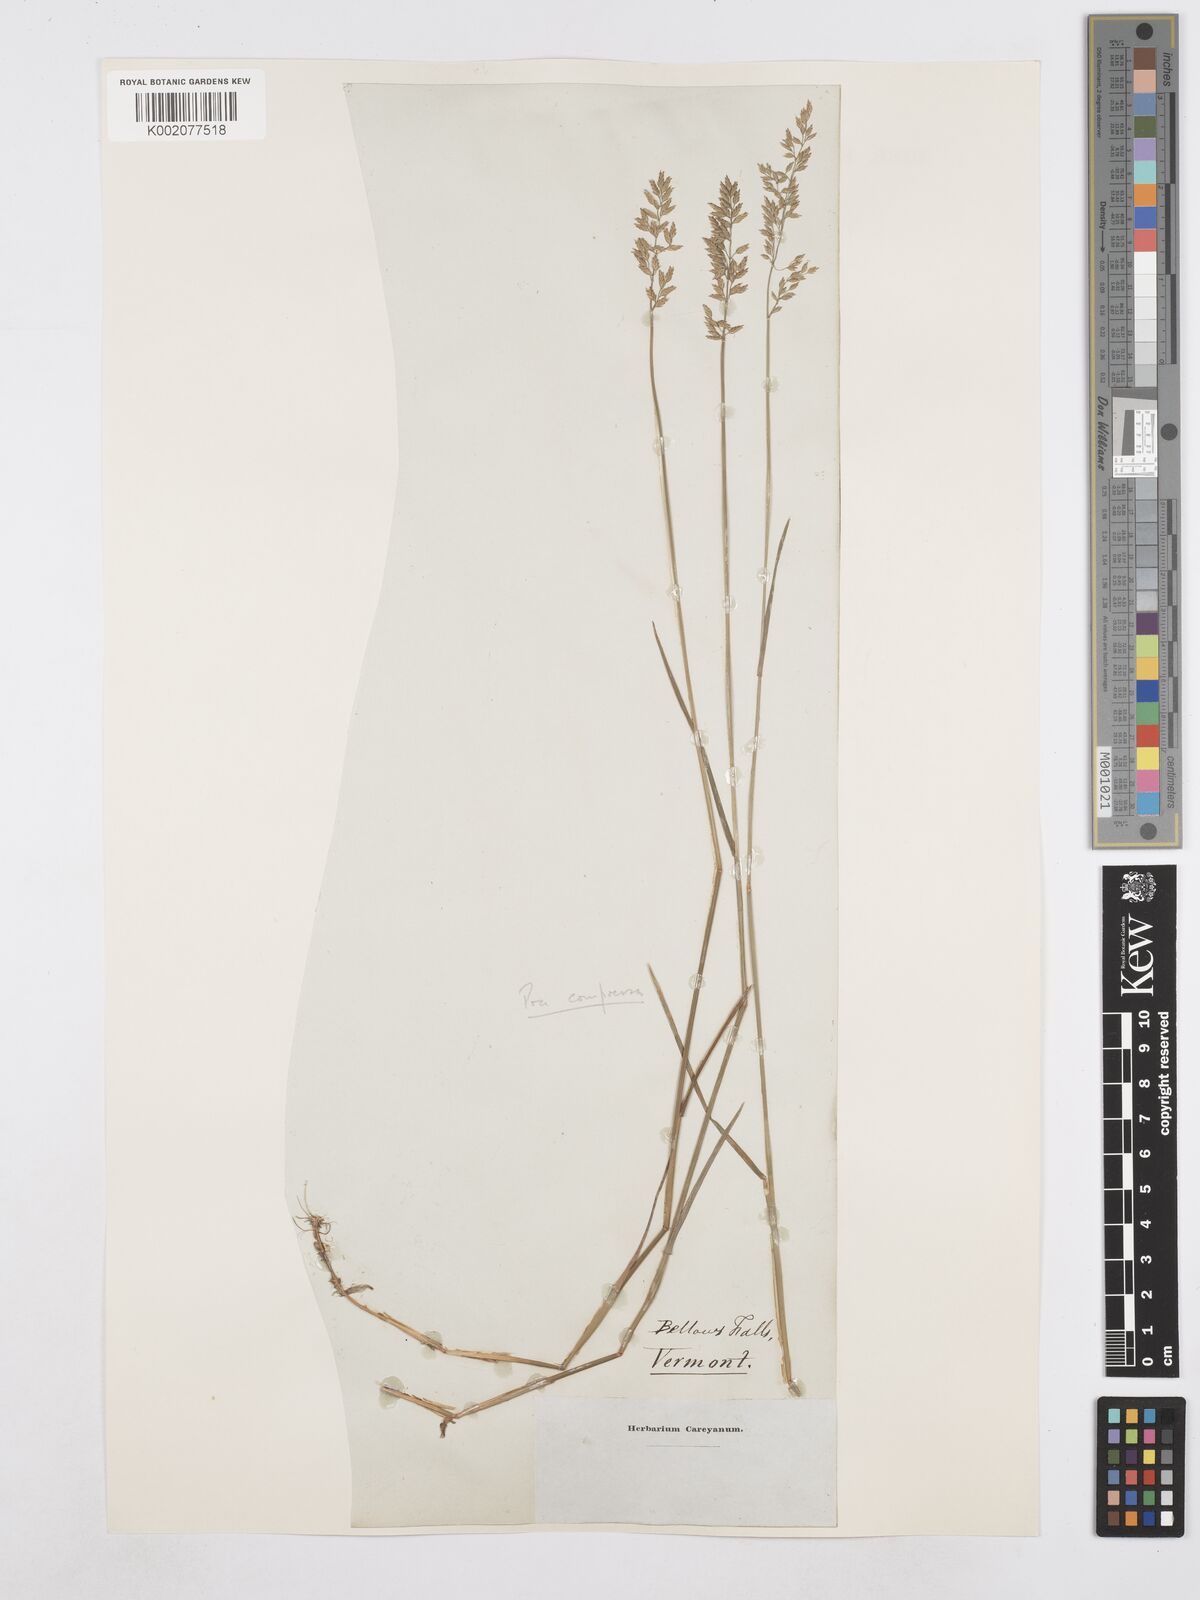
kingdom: Plantae
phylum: Tracheophyta
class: Liliopsida
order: Poales
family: Poaceae
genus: Poa
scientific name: Poa compressa
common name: Canada bluegrass
